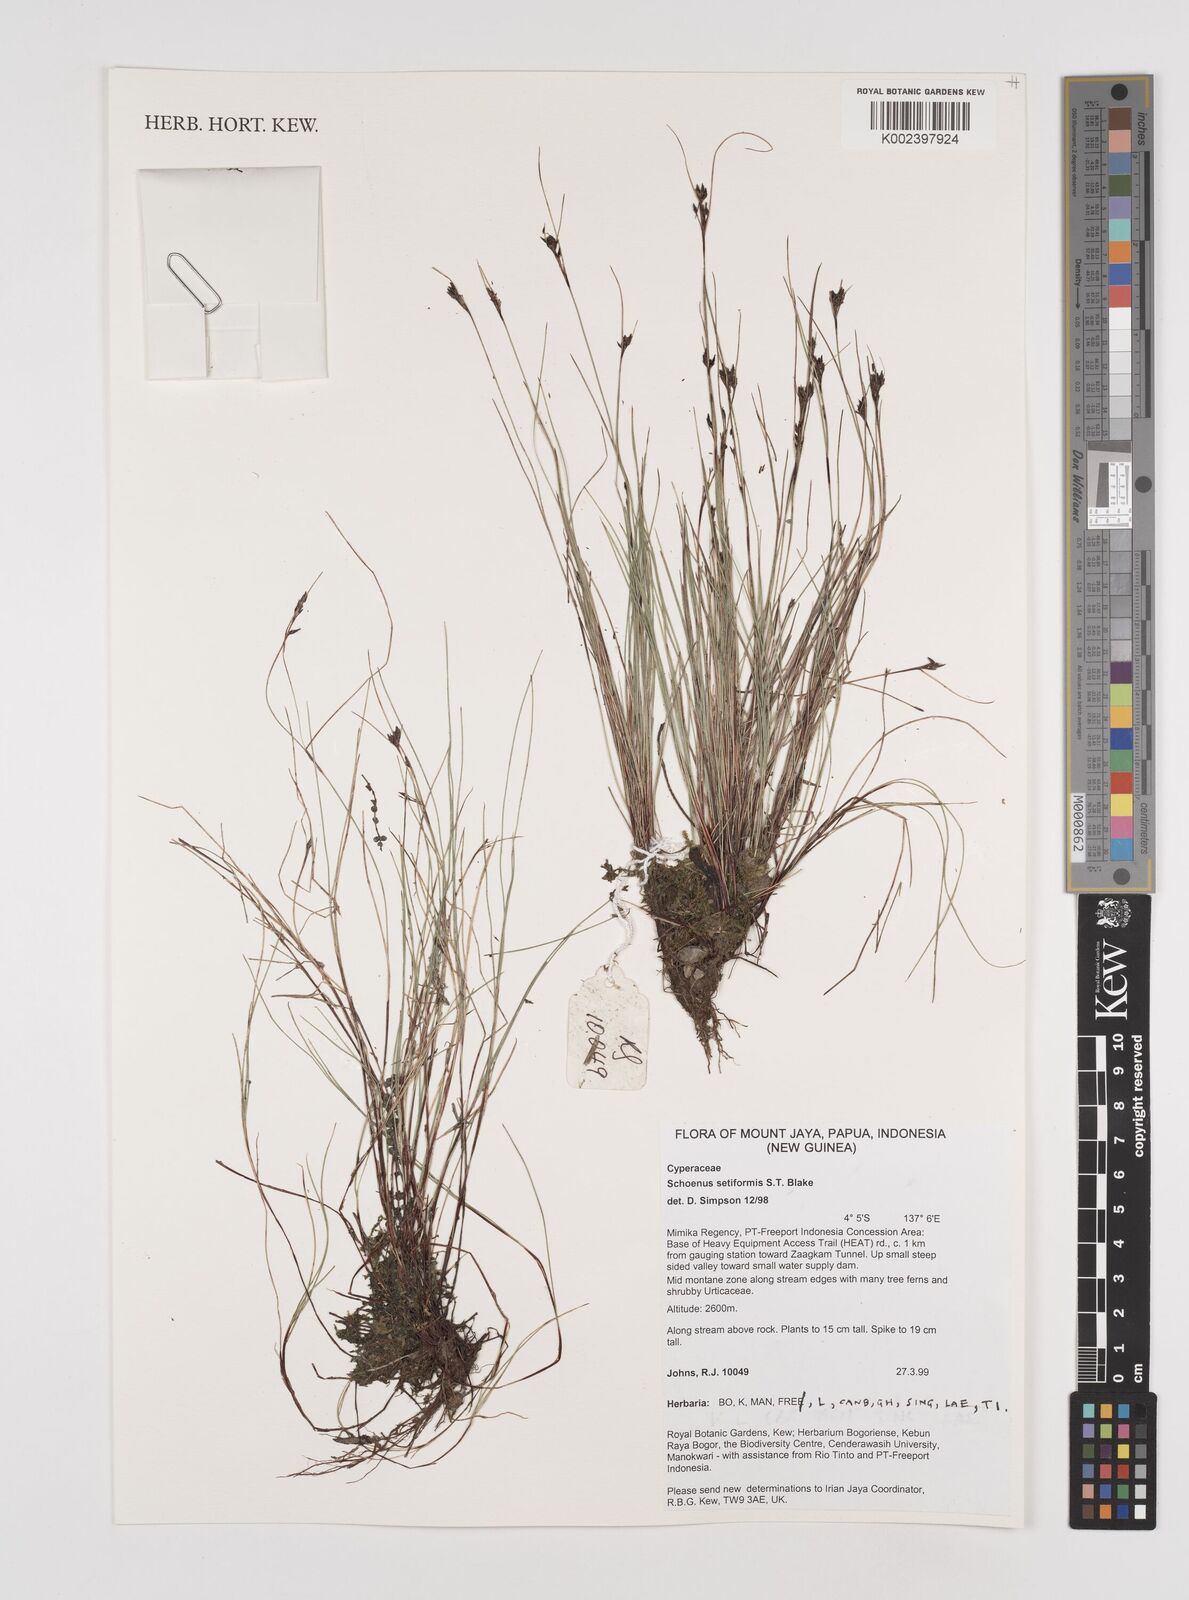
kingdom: Plantae
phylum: Tracheophyta
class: Liliopsida
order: Poales
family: Cyperaceae
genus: Schoenus
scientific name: Schoenus setiformis
